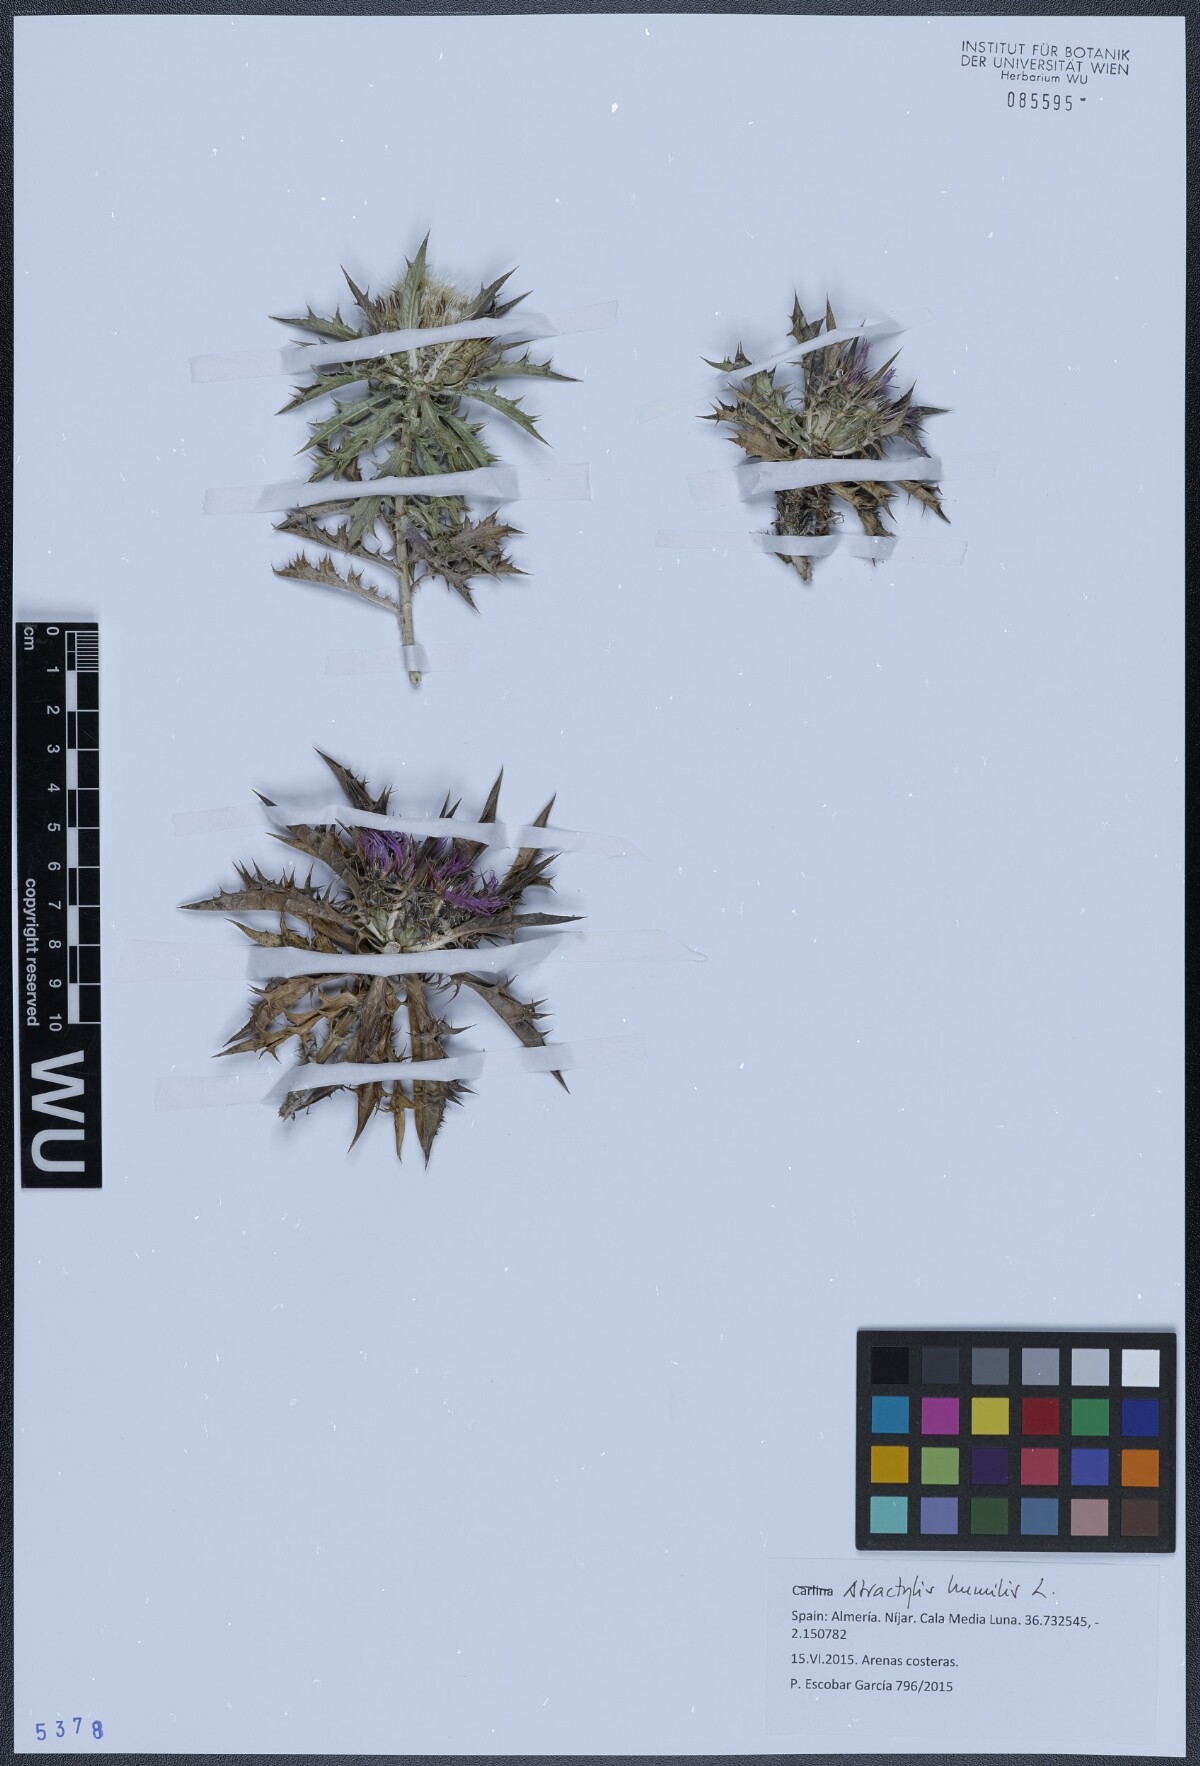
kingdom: Plantae
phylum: Tracheophyta
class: Magnoliopsida
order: Asterales
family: Asteraceae
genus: Atractylis
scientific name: Atractylis humilis
